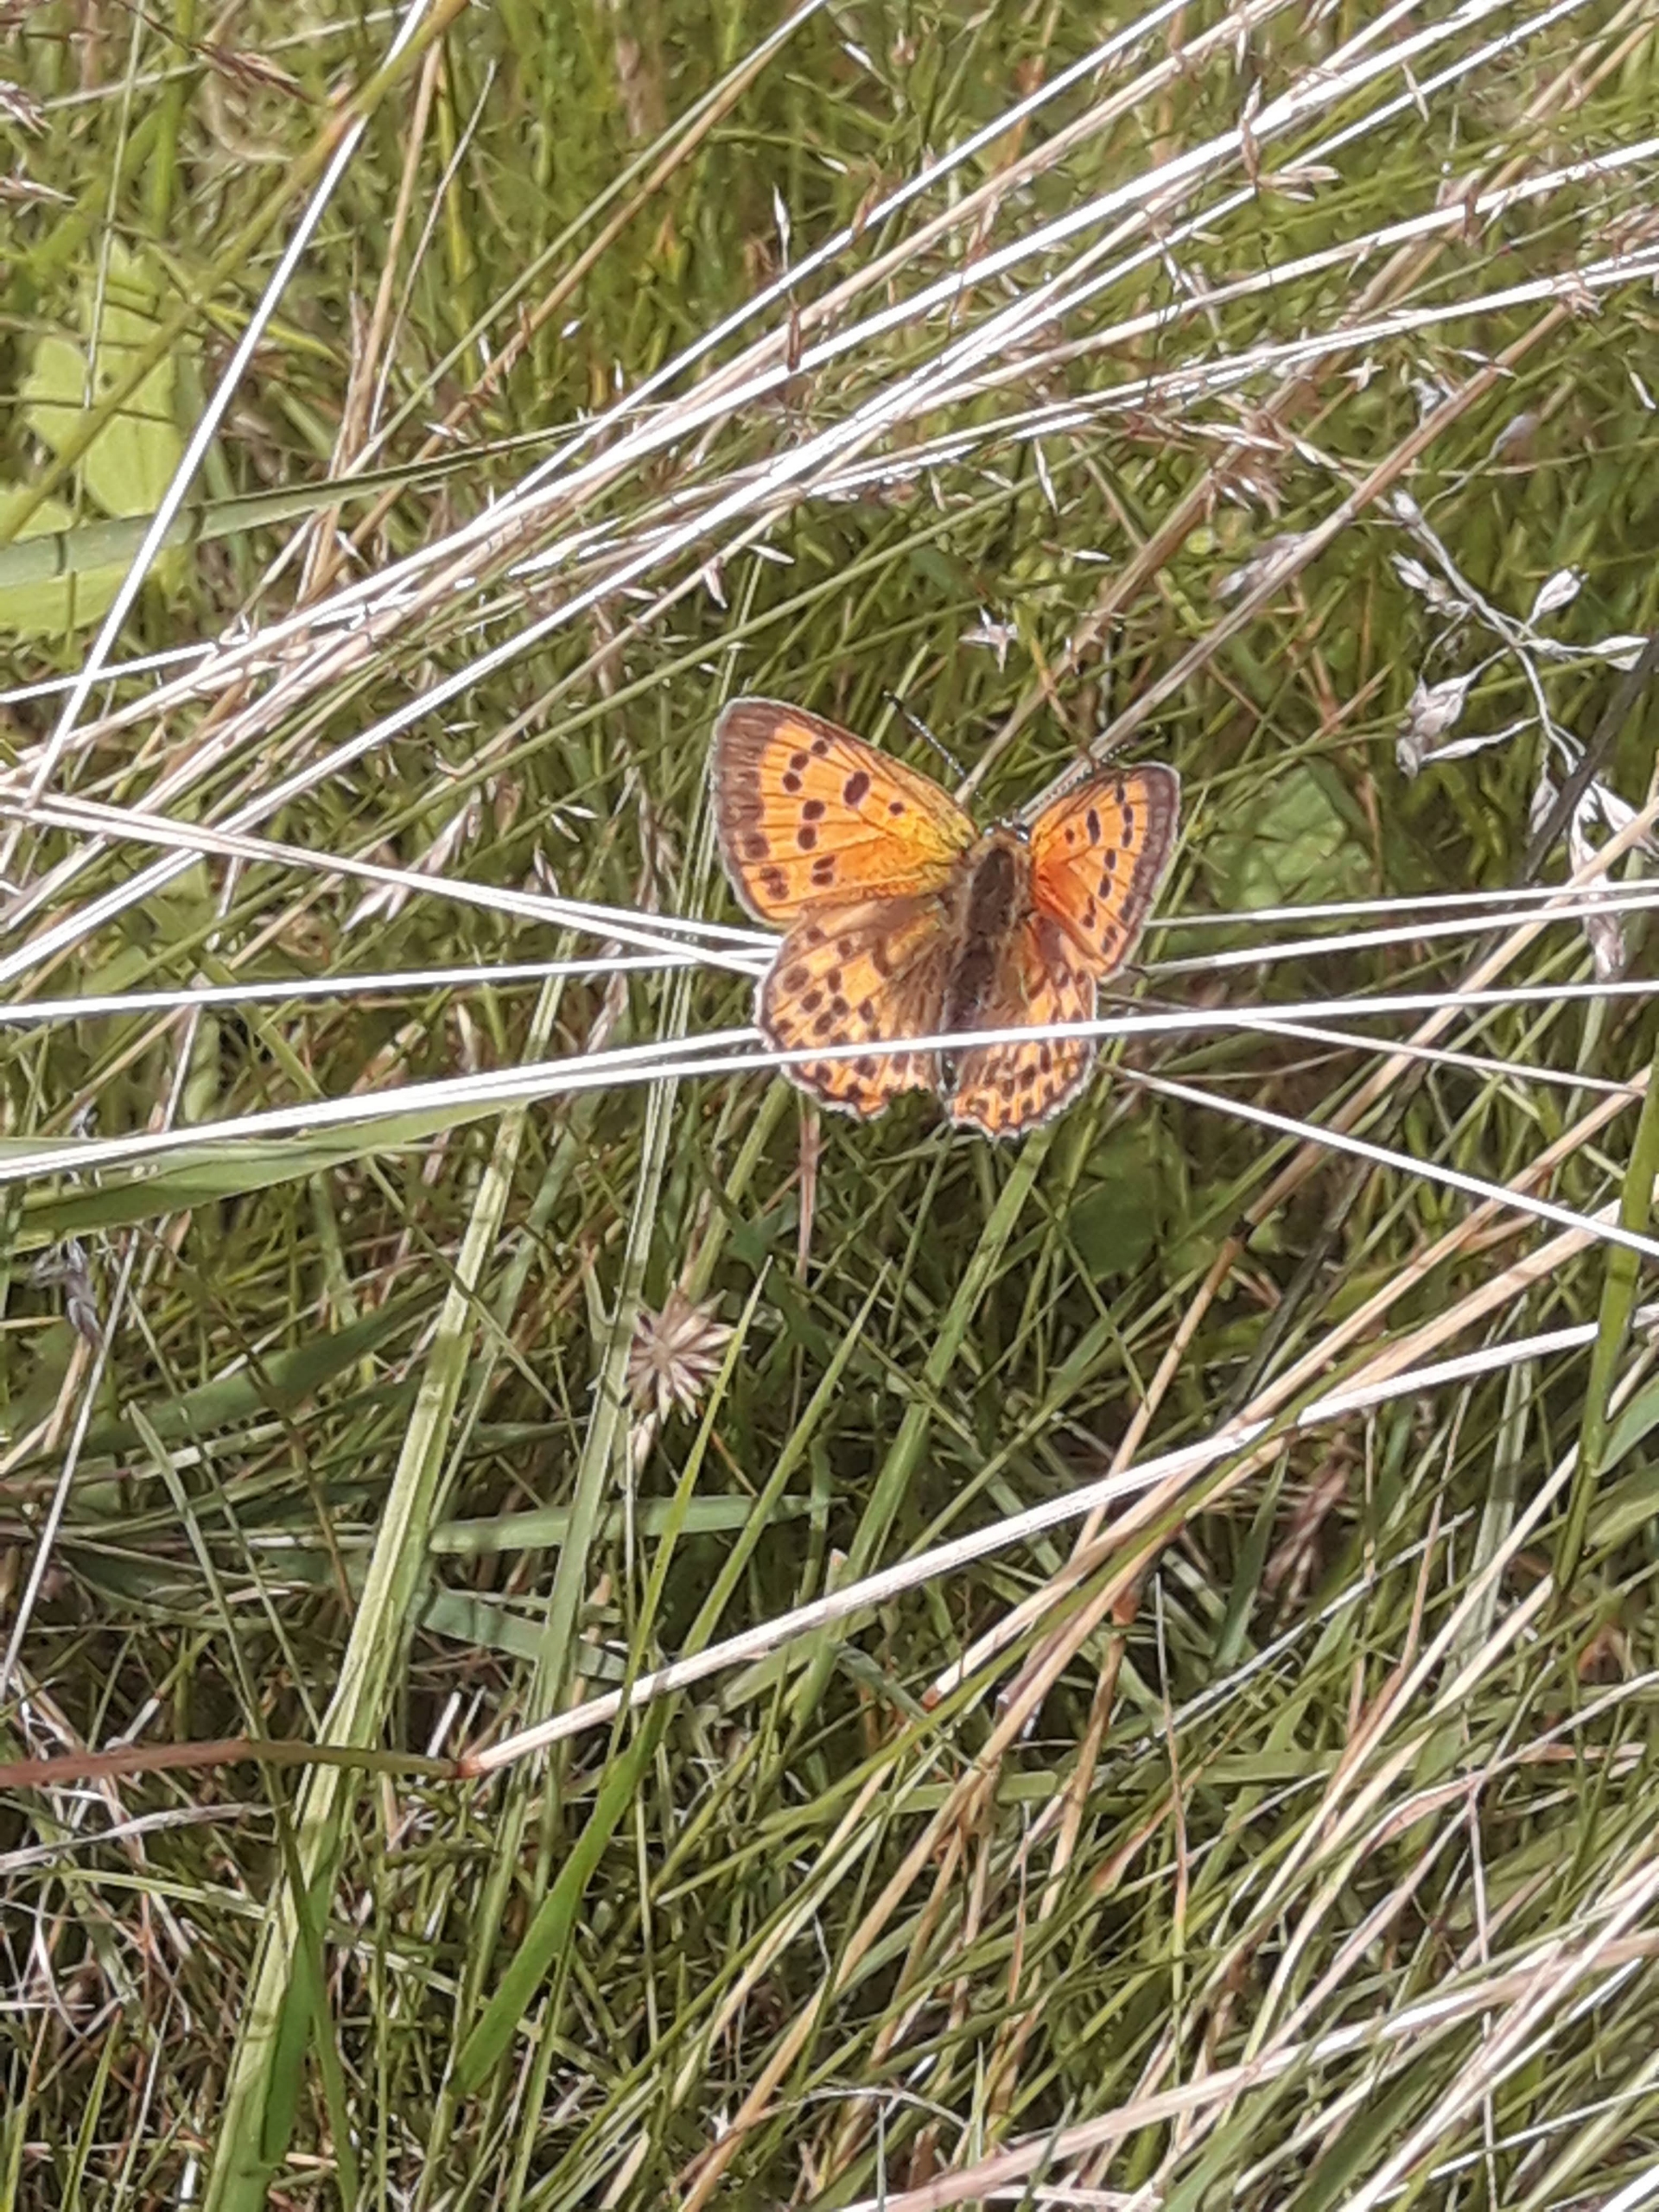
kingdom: Animalia
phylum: Arthropoda
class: Insecta
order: Lepidoptera
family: Lycaenidae
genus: Lycaena
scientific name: Lycaena virgaureae
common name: Dukatsommerfugl
